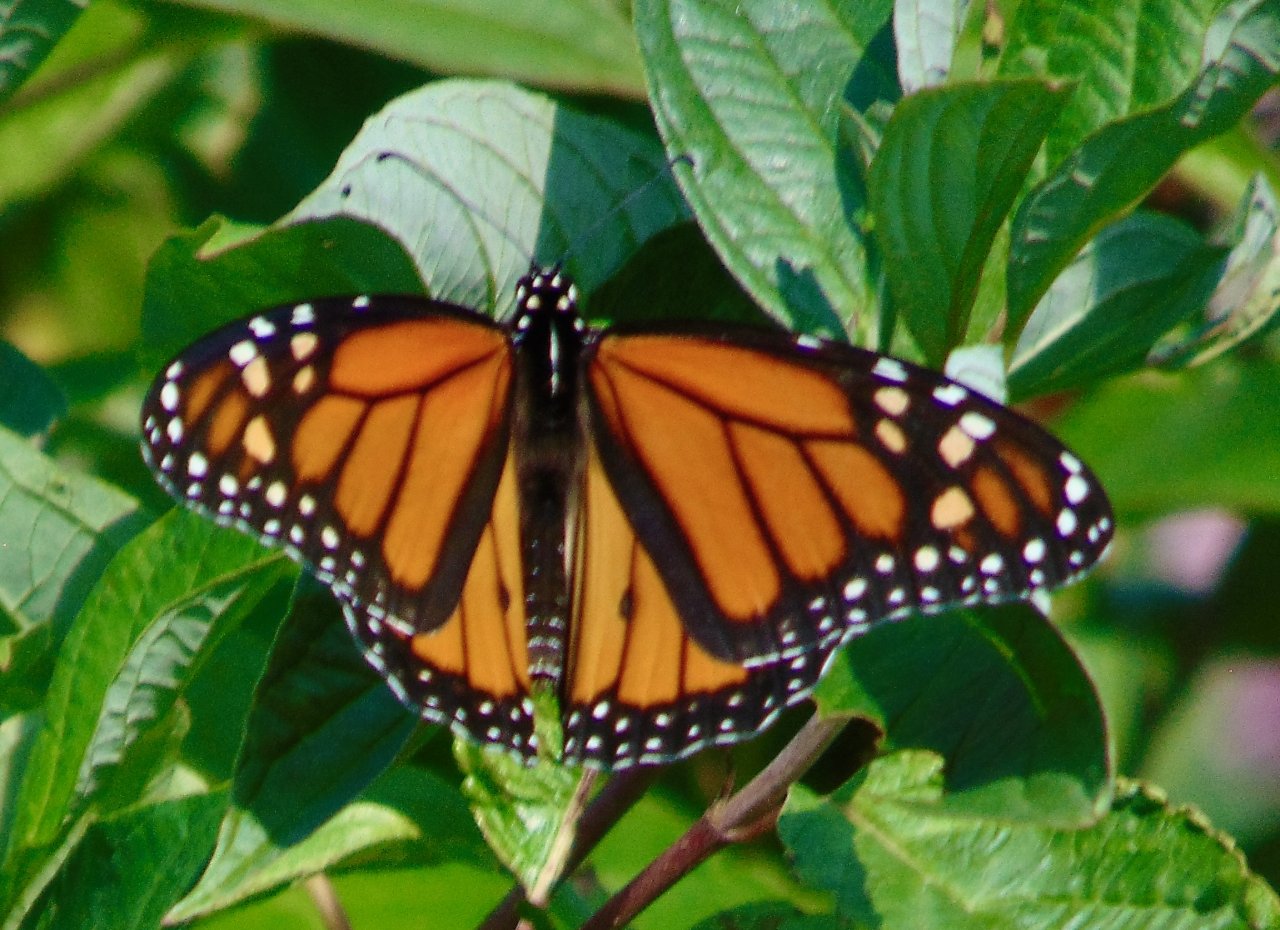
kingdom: Animalia
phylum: Arthropoda
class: Insecta
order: Lepidoptera
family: Nymphalidae
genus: Danaus
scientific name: Danaus plexippus
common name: Monarch
